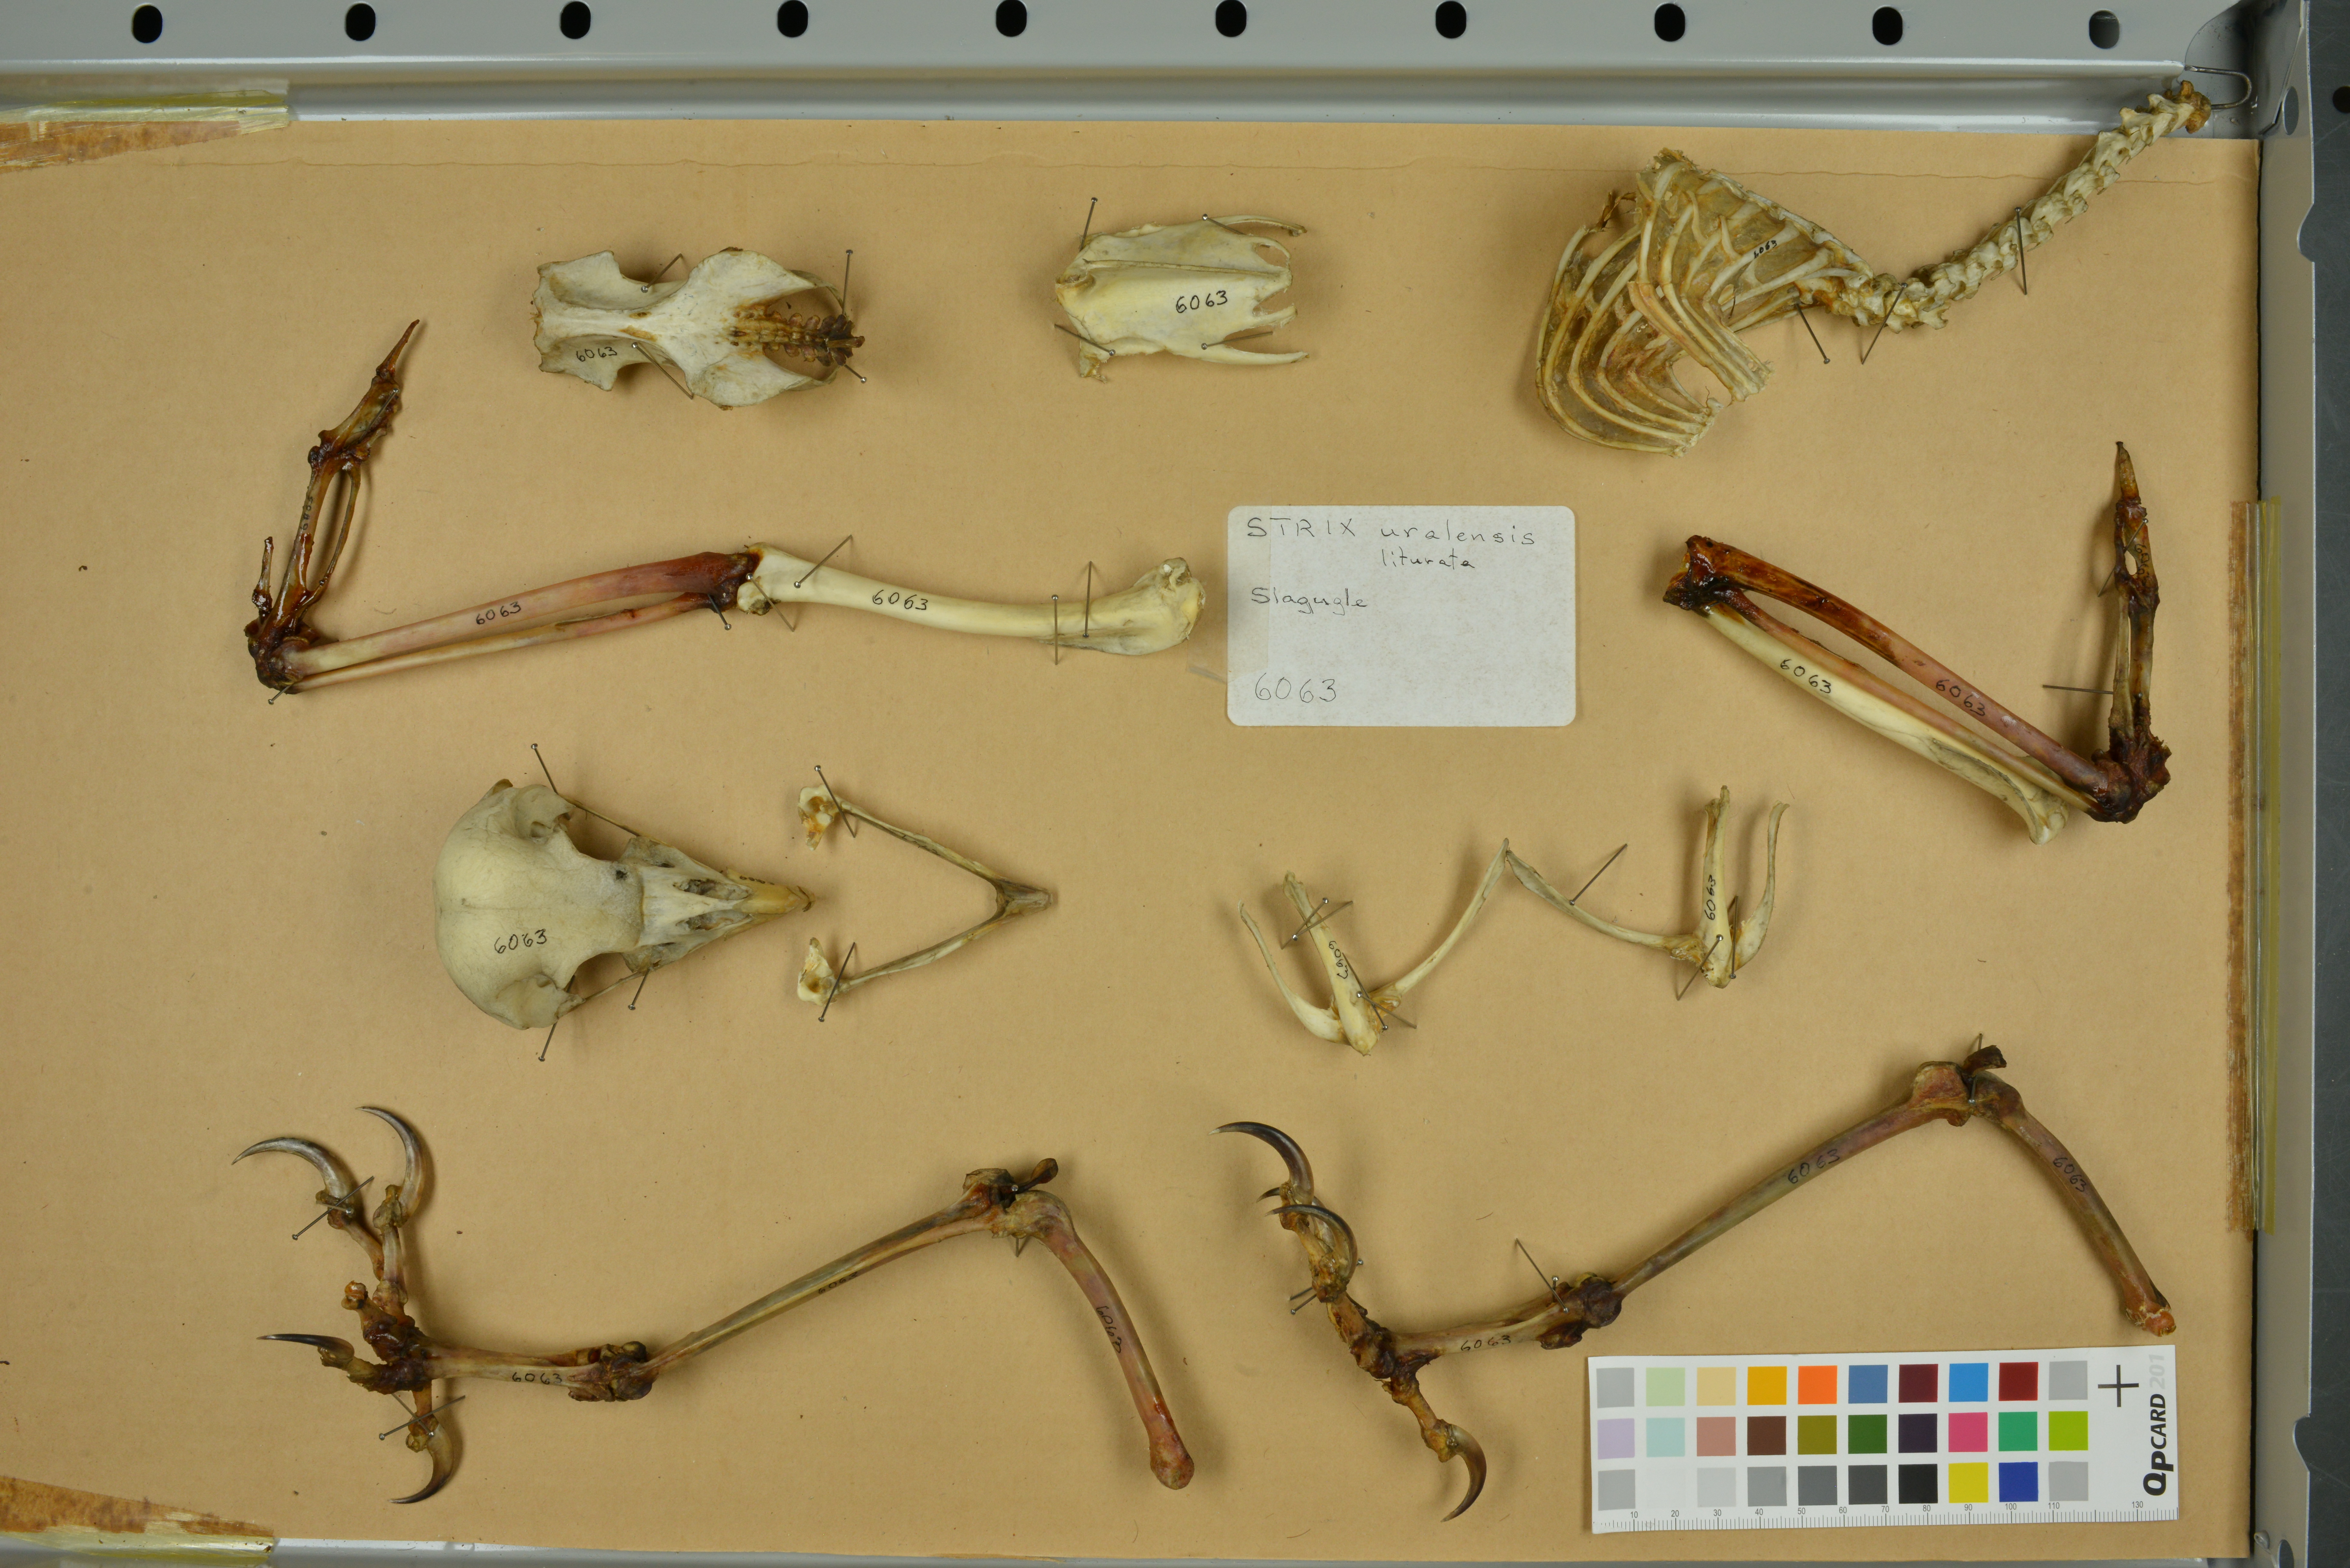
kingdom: Animalia
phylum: Chordata
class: Aves
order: Strigiformes
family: Strigidae
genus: Strix
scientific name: Strix uralensis
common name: Ural owl
